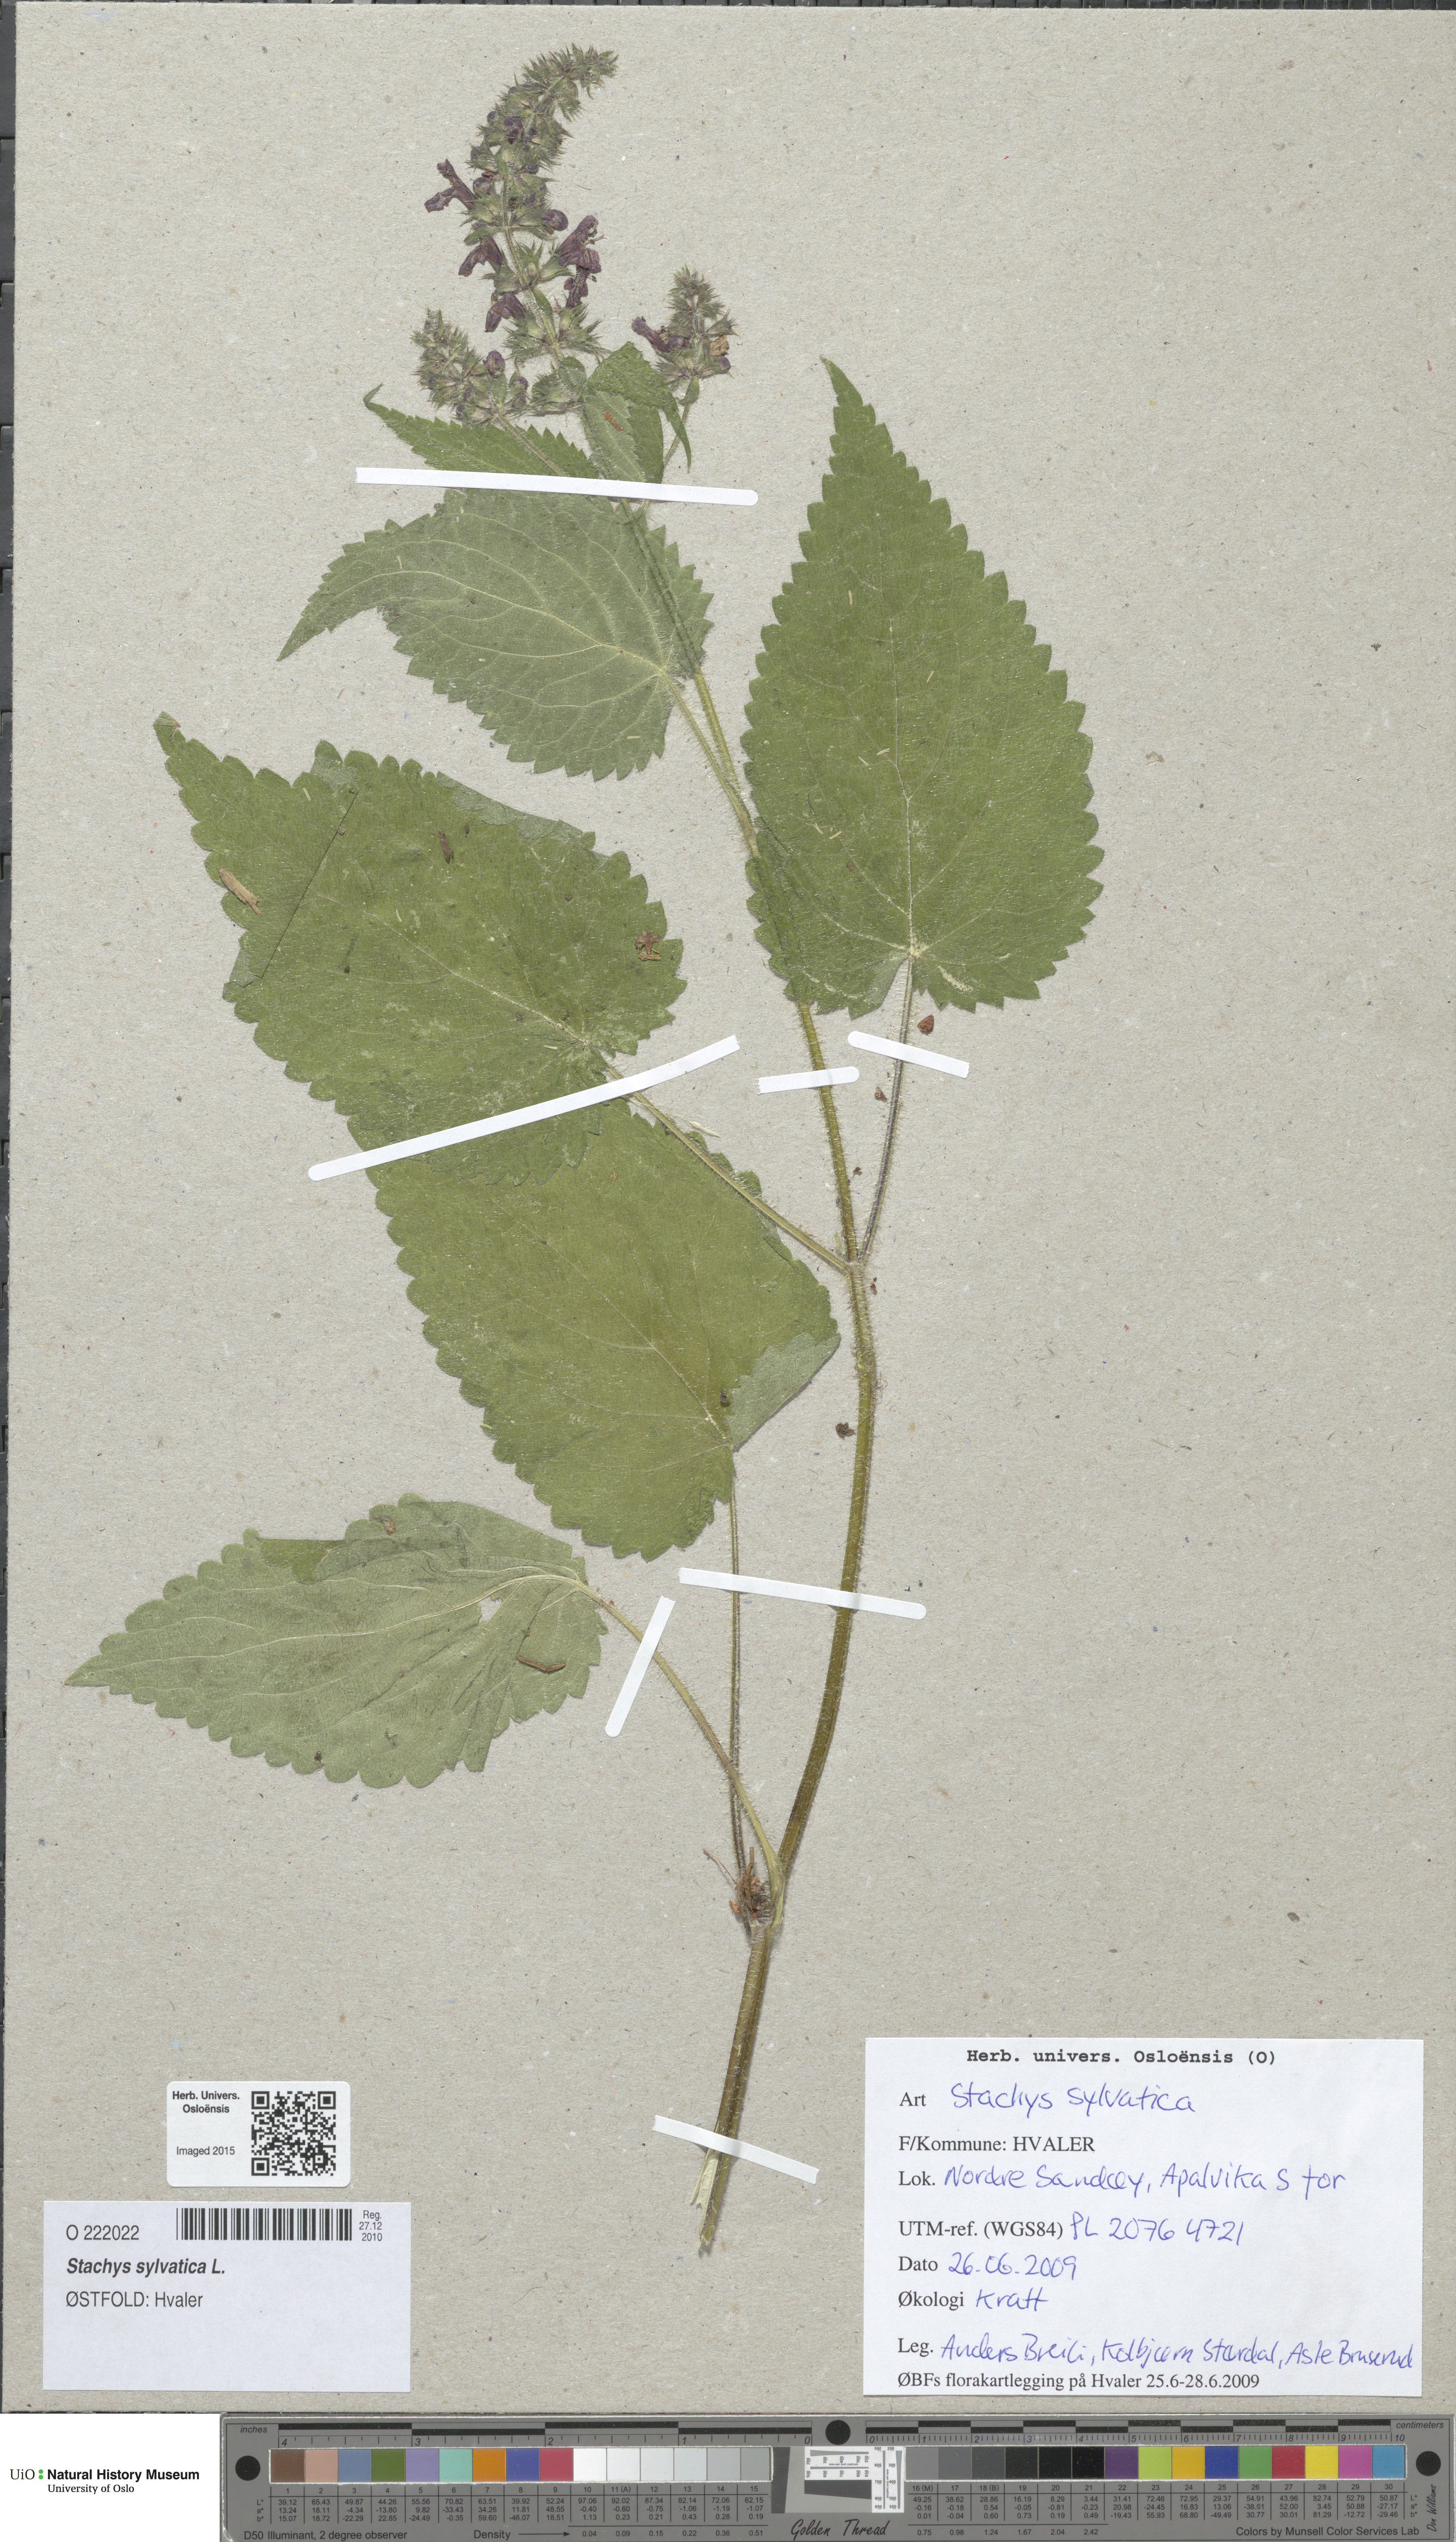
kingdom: Plantae
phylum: Tracheophyta
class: Magnoliopsida
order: Lamiales
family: Lamiaceae
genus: Stachys
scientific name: Stachys sylvatica
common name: Hedge woundwort
